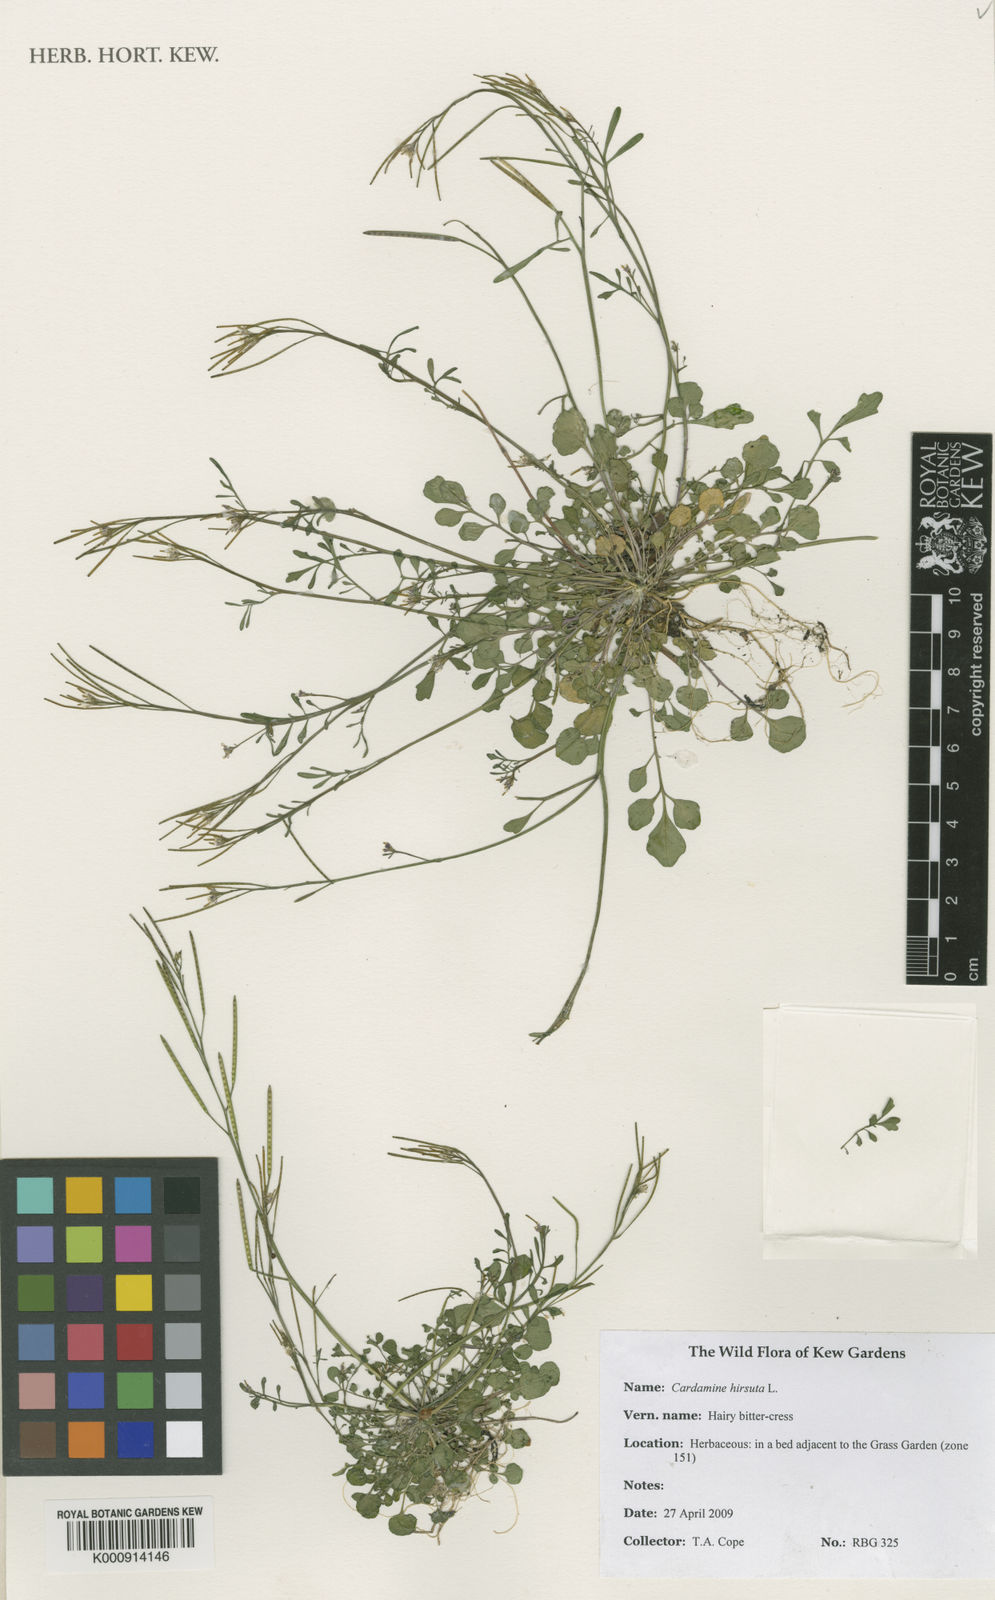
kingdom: Plantae
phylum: Tracheophyta
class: Magnoliopsida
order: Brassicales
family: Brassicaceae
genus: Cardamine
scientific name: Cardamine hirsuta
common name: Hairy bittercress
